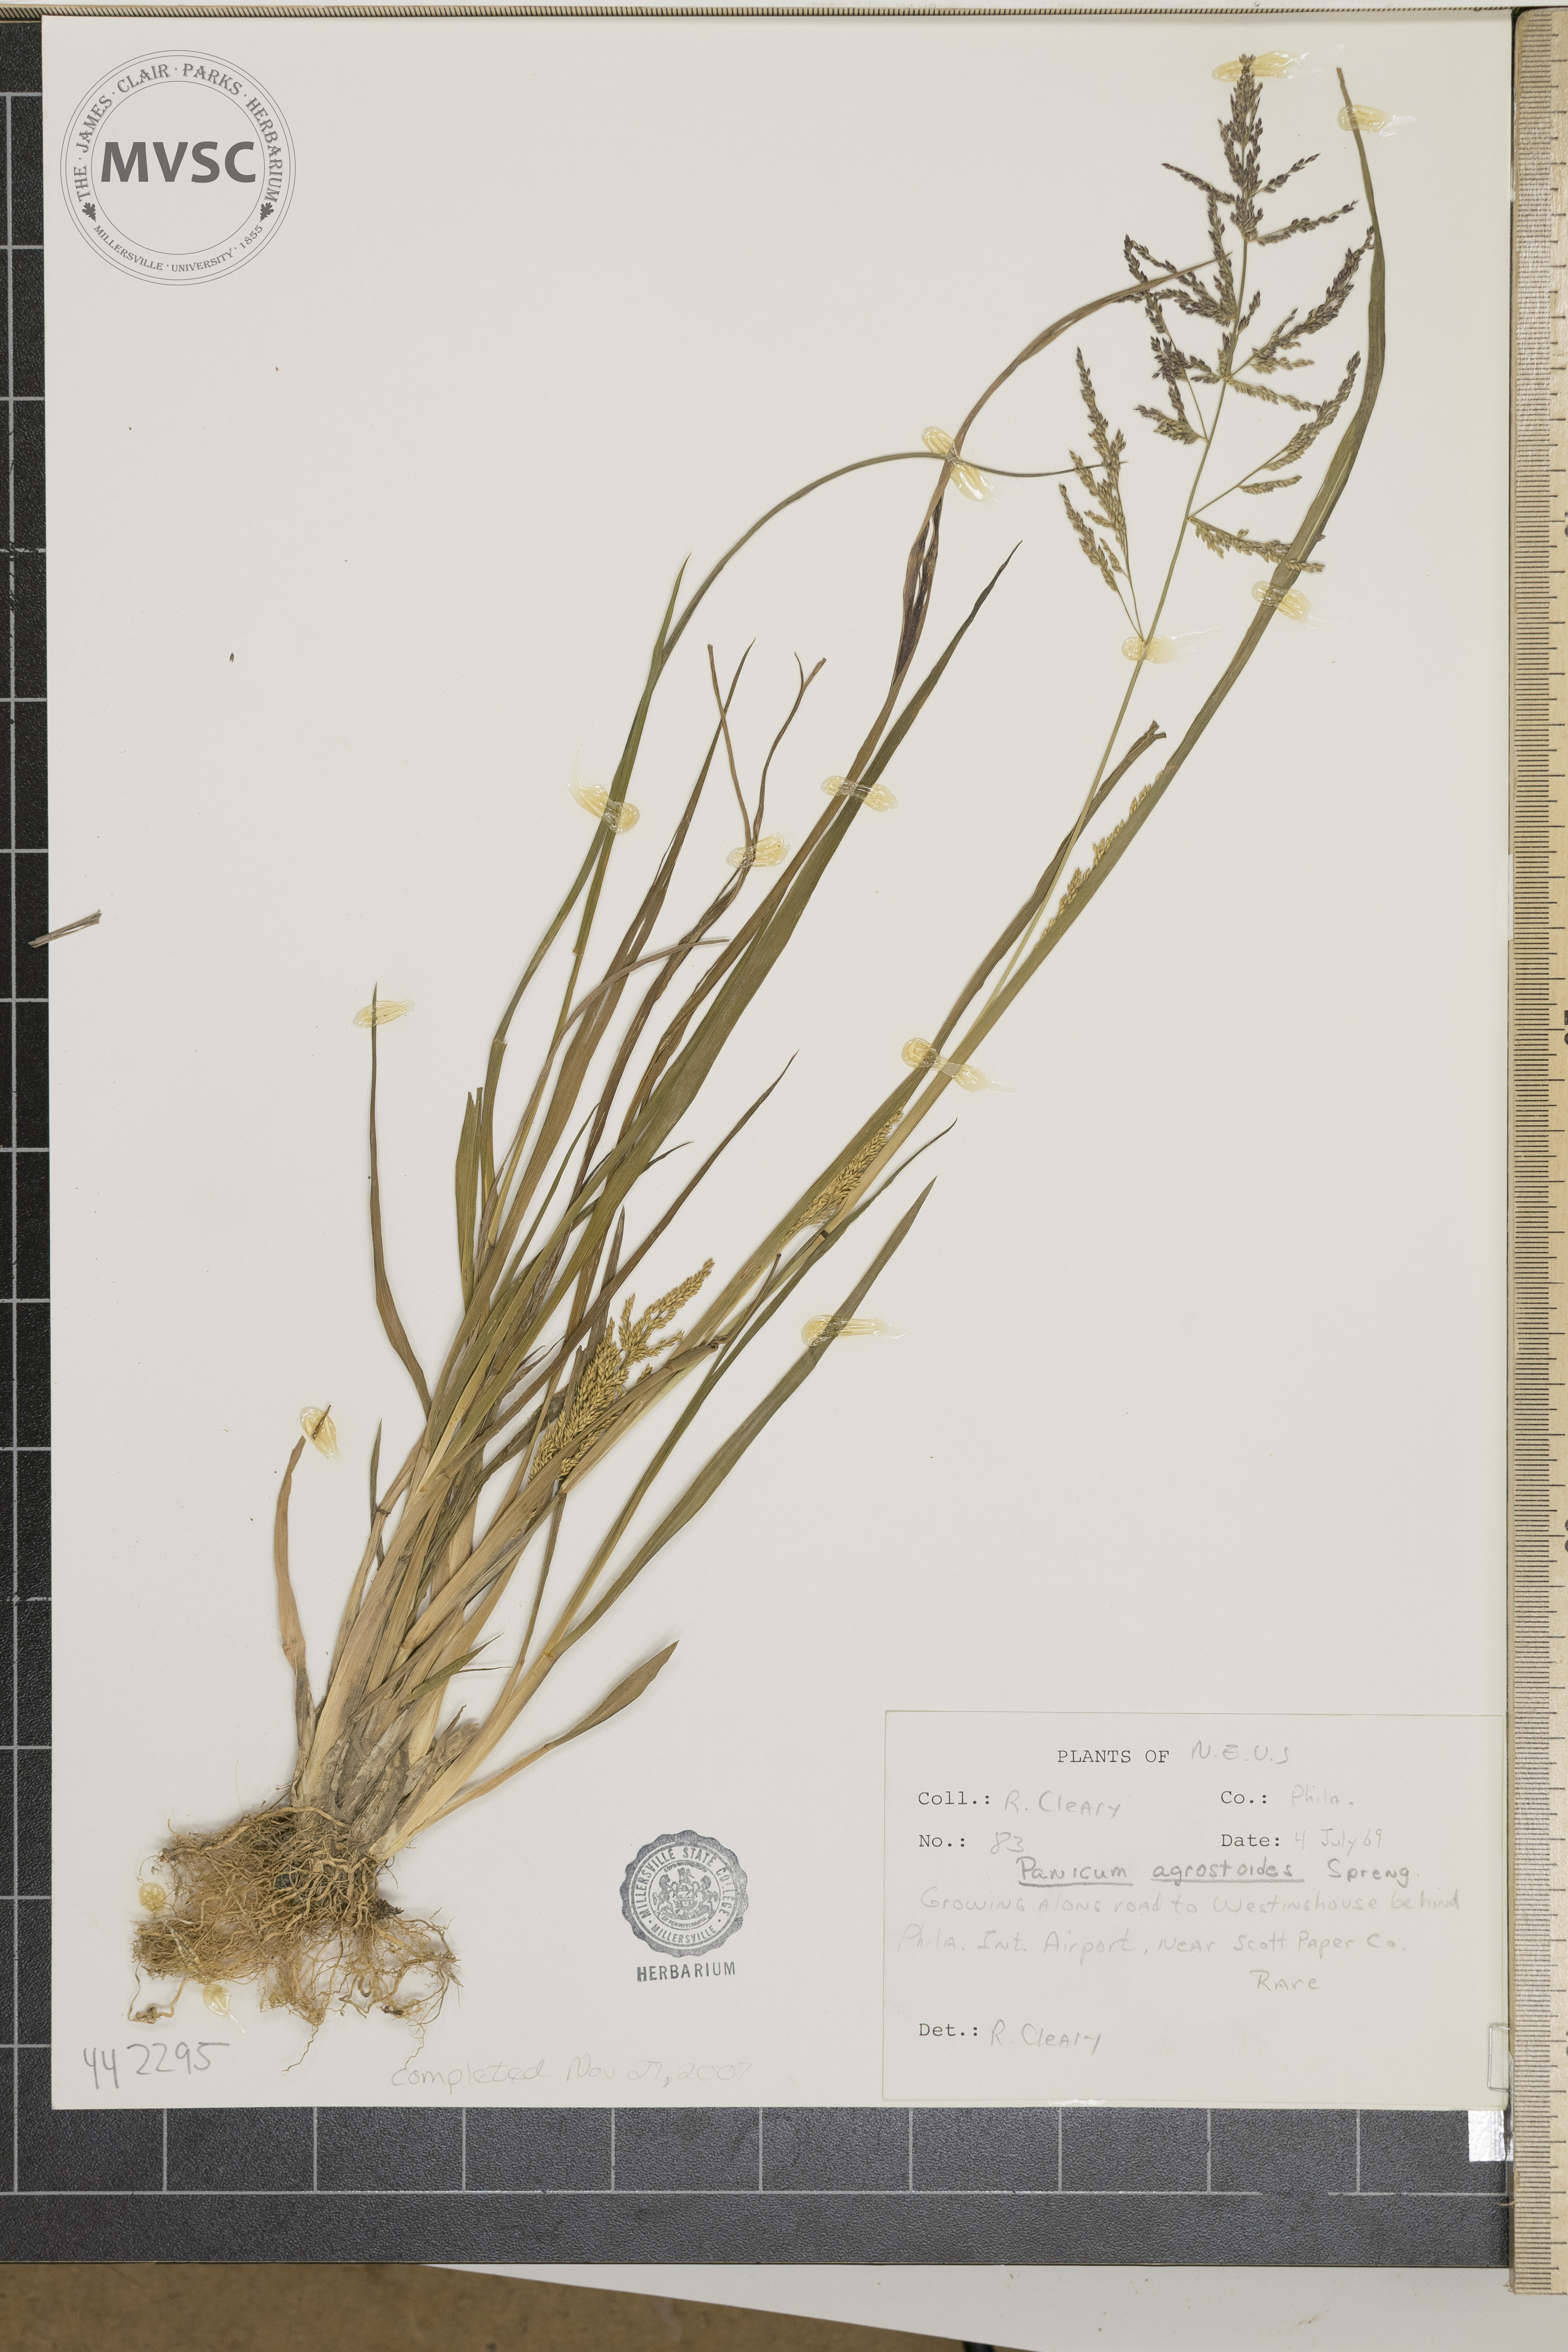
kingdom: Plantae
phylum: Tracheophyta
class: Liliopsida
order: Poales
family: Poaceae
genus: Steinchisma
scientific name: Steinchisma laxum
